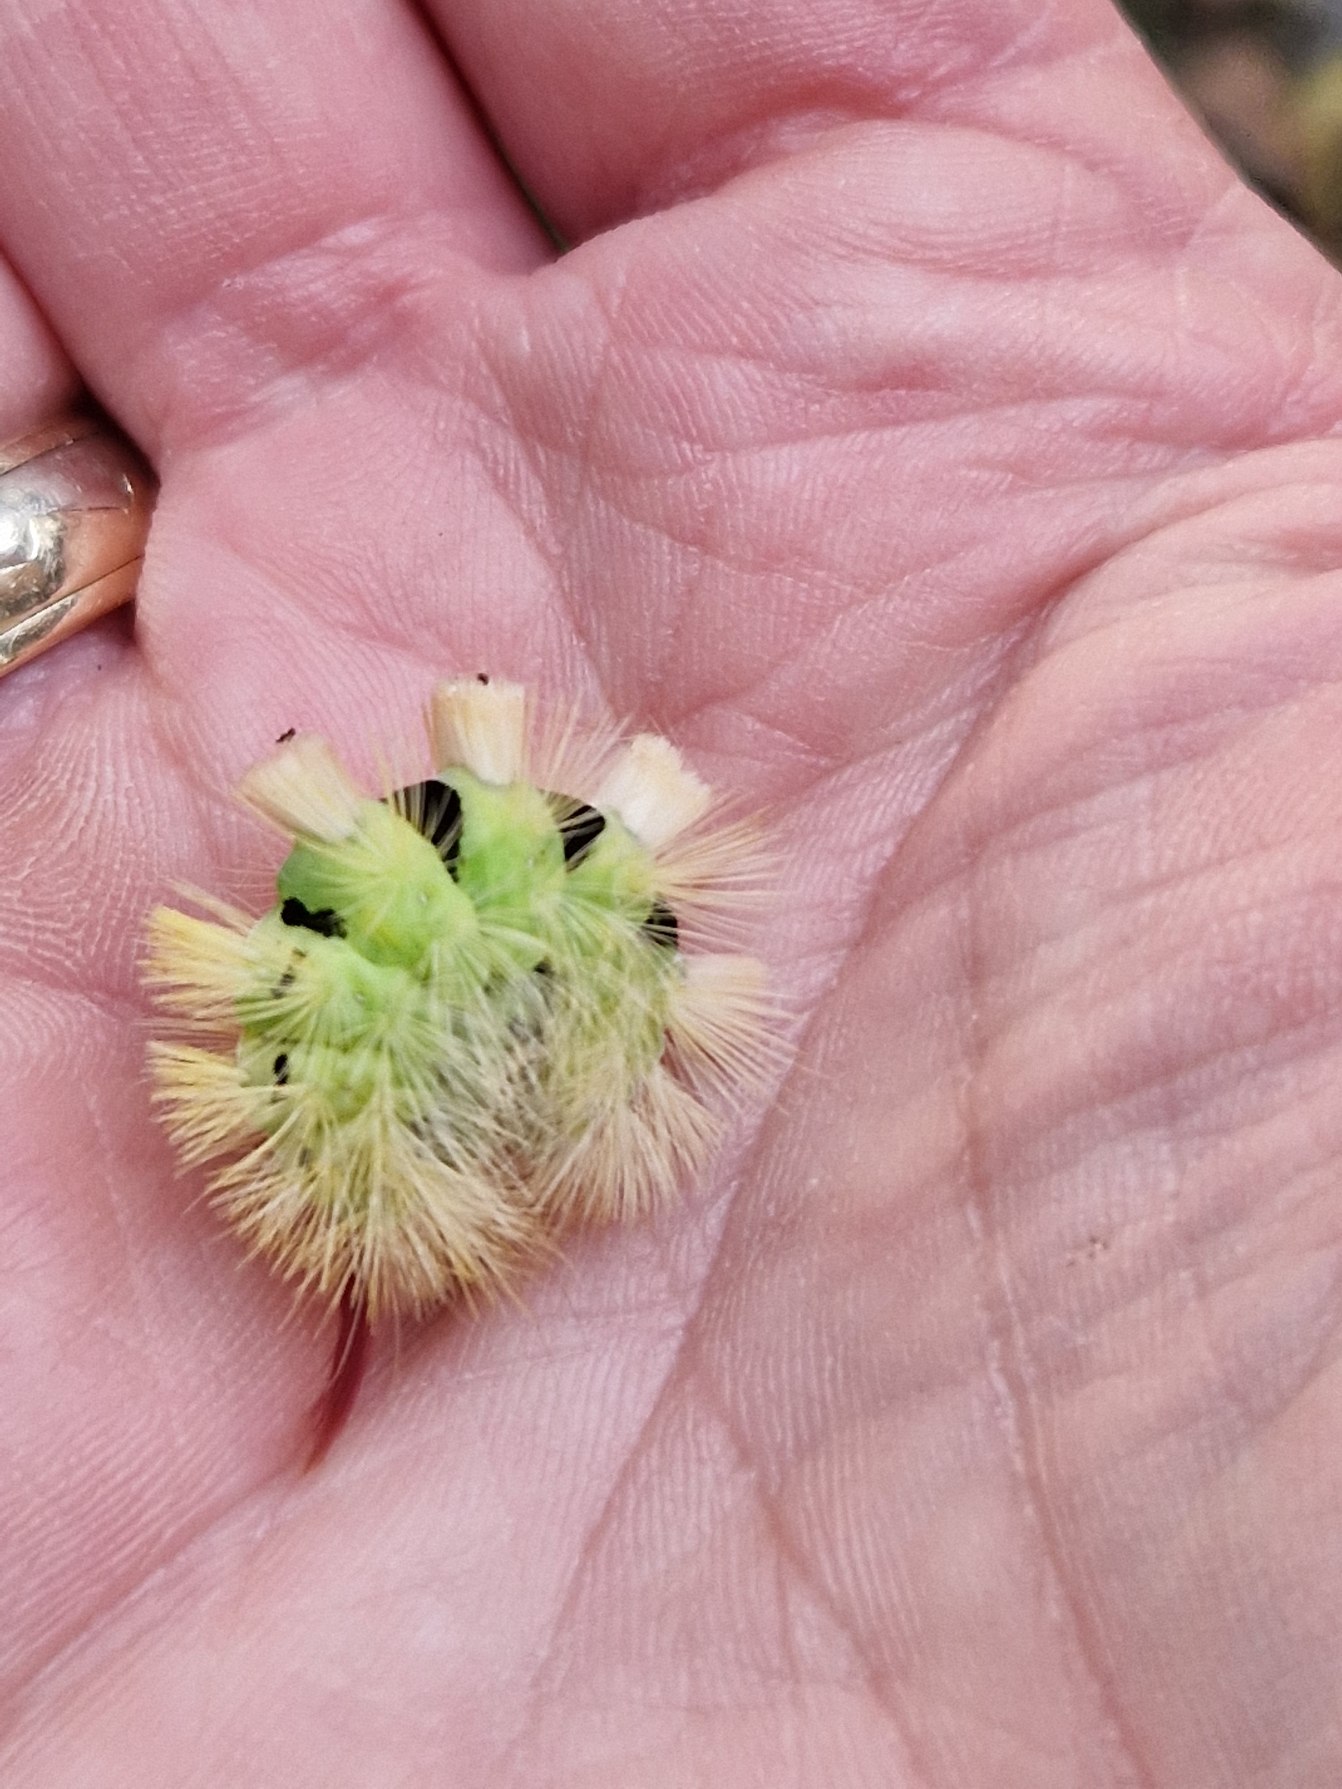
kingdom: Animalia
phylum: Arthropoda
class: Insecta
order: Lepidoptera
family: Erebidae
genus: Calliteara
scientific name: Calliteara pudibunda
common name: Bøgenonne
